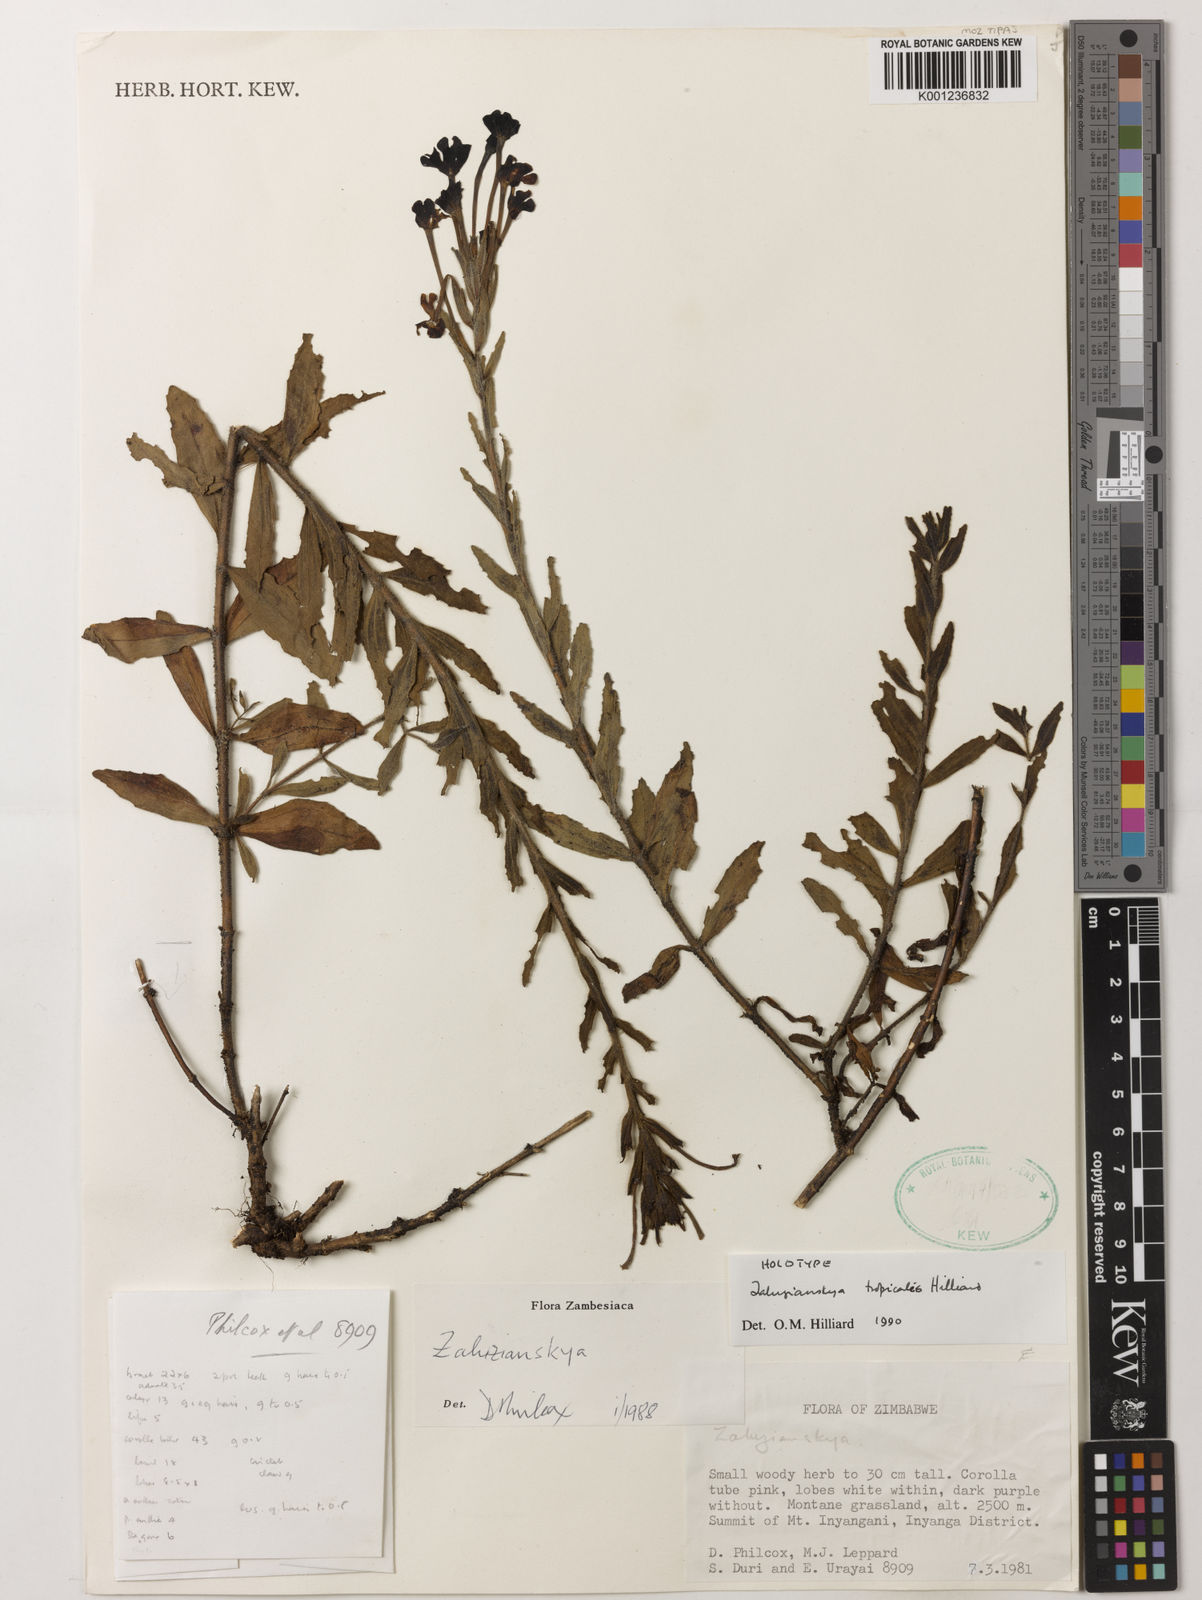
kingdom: Plantae
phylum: Tracheophyta
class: Magnoliopsida
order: Lamiales
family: Scrophulariaceae
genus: Zaluzianskya
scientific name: Zaluzianskya tropicalis
